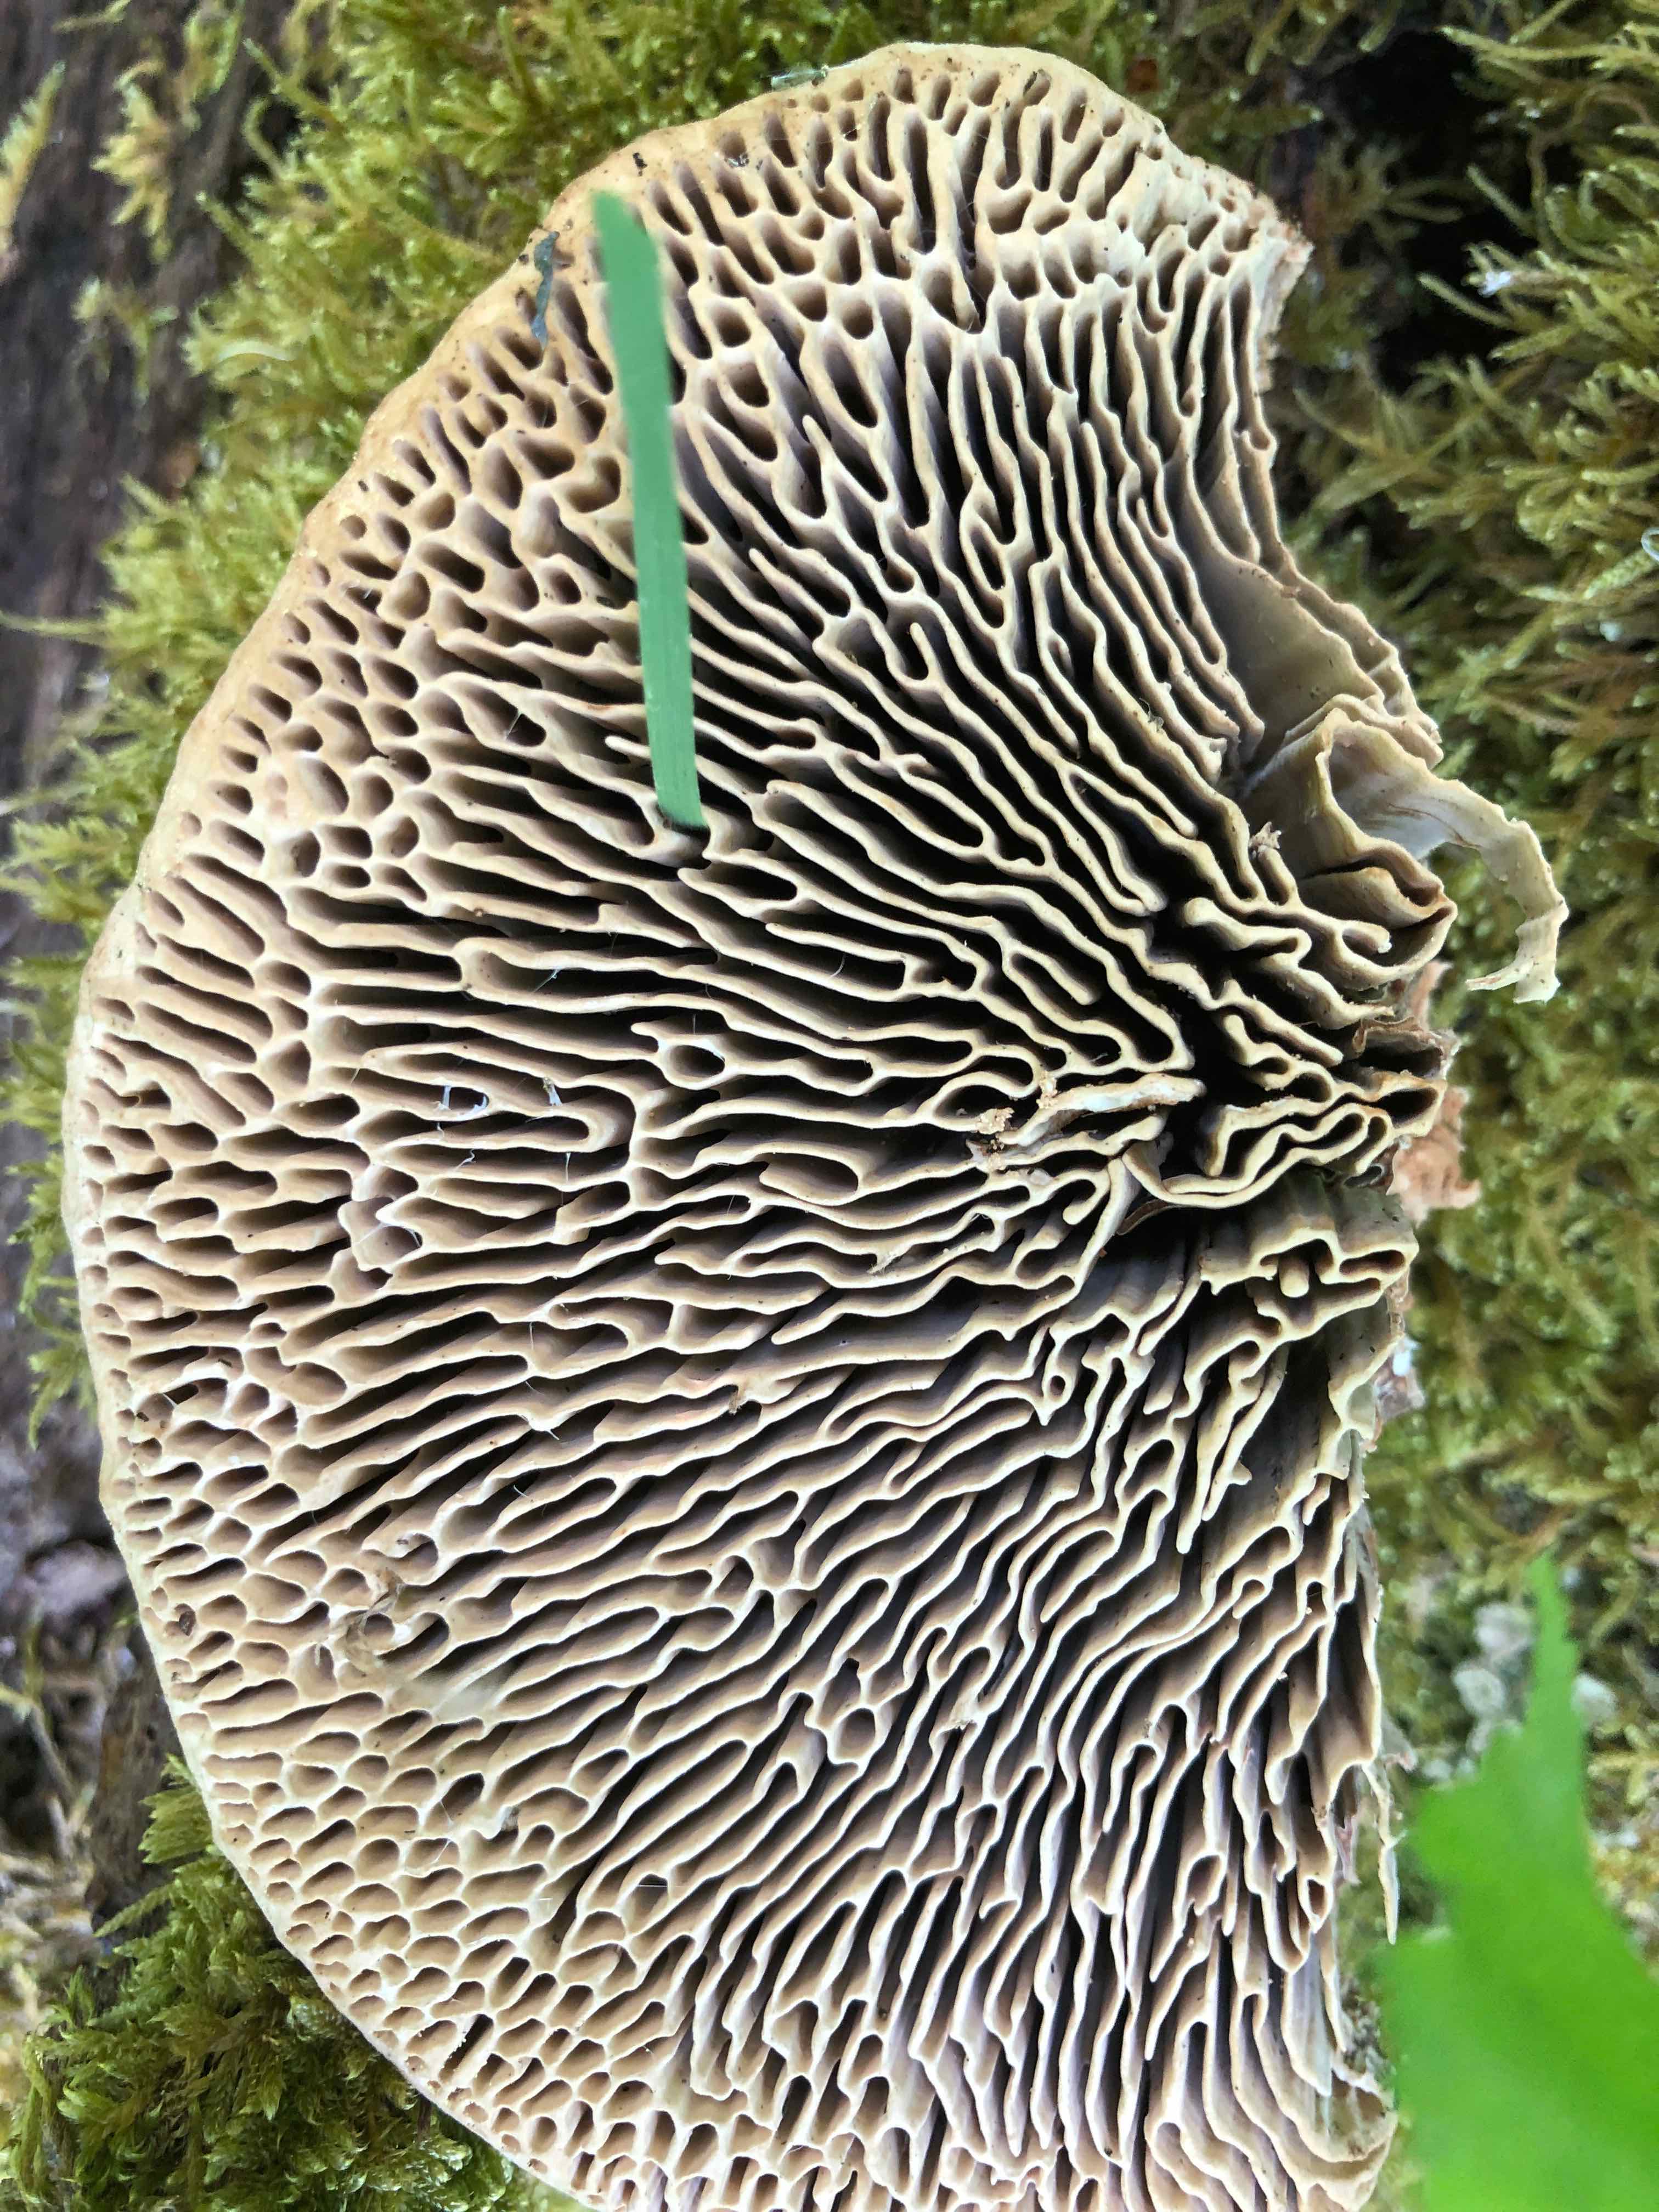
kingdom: Fungi
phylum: Basidiomycota
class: Agaricomycetes
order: Polyporales
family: Fomitopsidaceae
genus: Daedalea
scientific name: Daedalea quercina
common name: ege-labyrintsvamp
